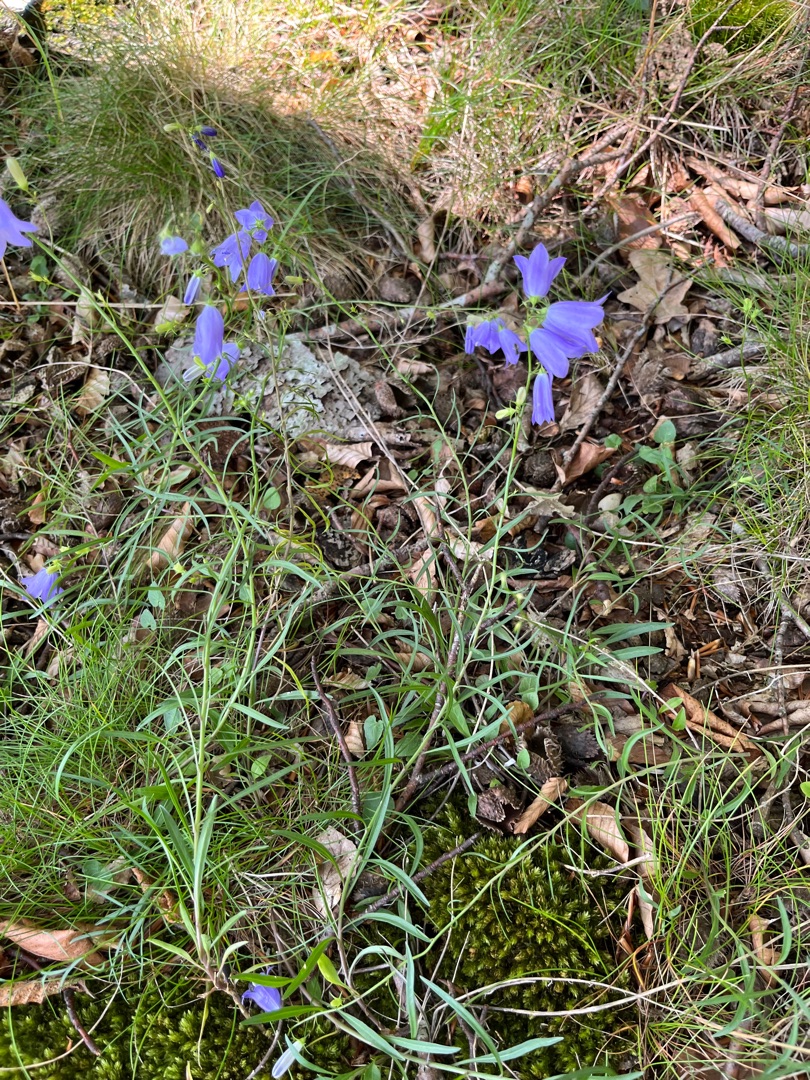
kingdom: Plantae
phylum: Tracheophyta
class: Magnoliopsida
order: Asterales
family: Campanulaceae
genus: Campanula
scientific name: Campanula rotundifolia
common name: Liden klokke
